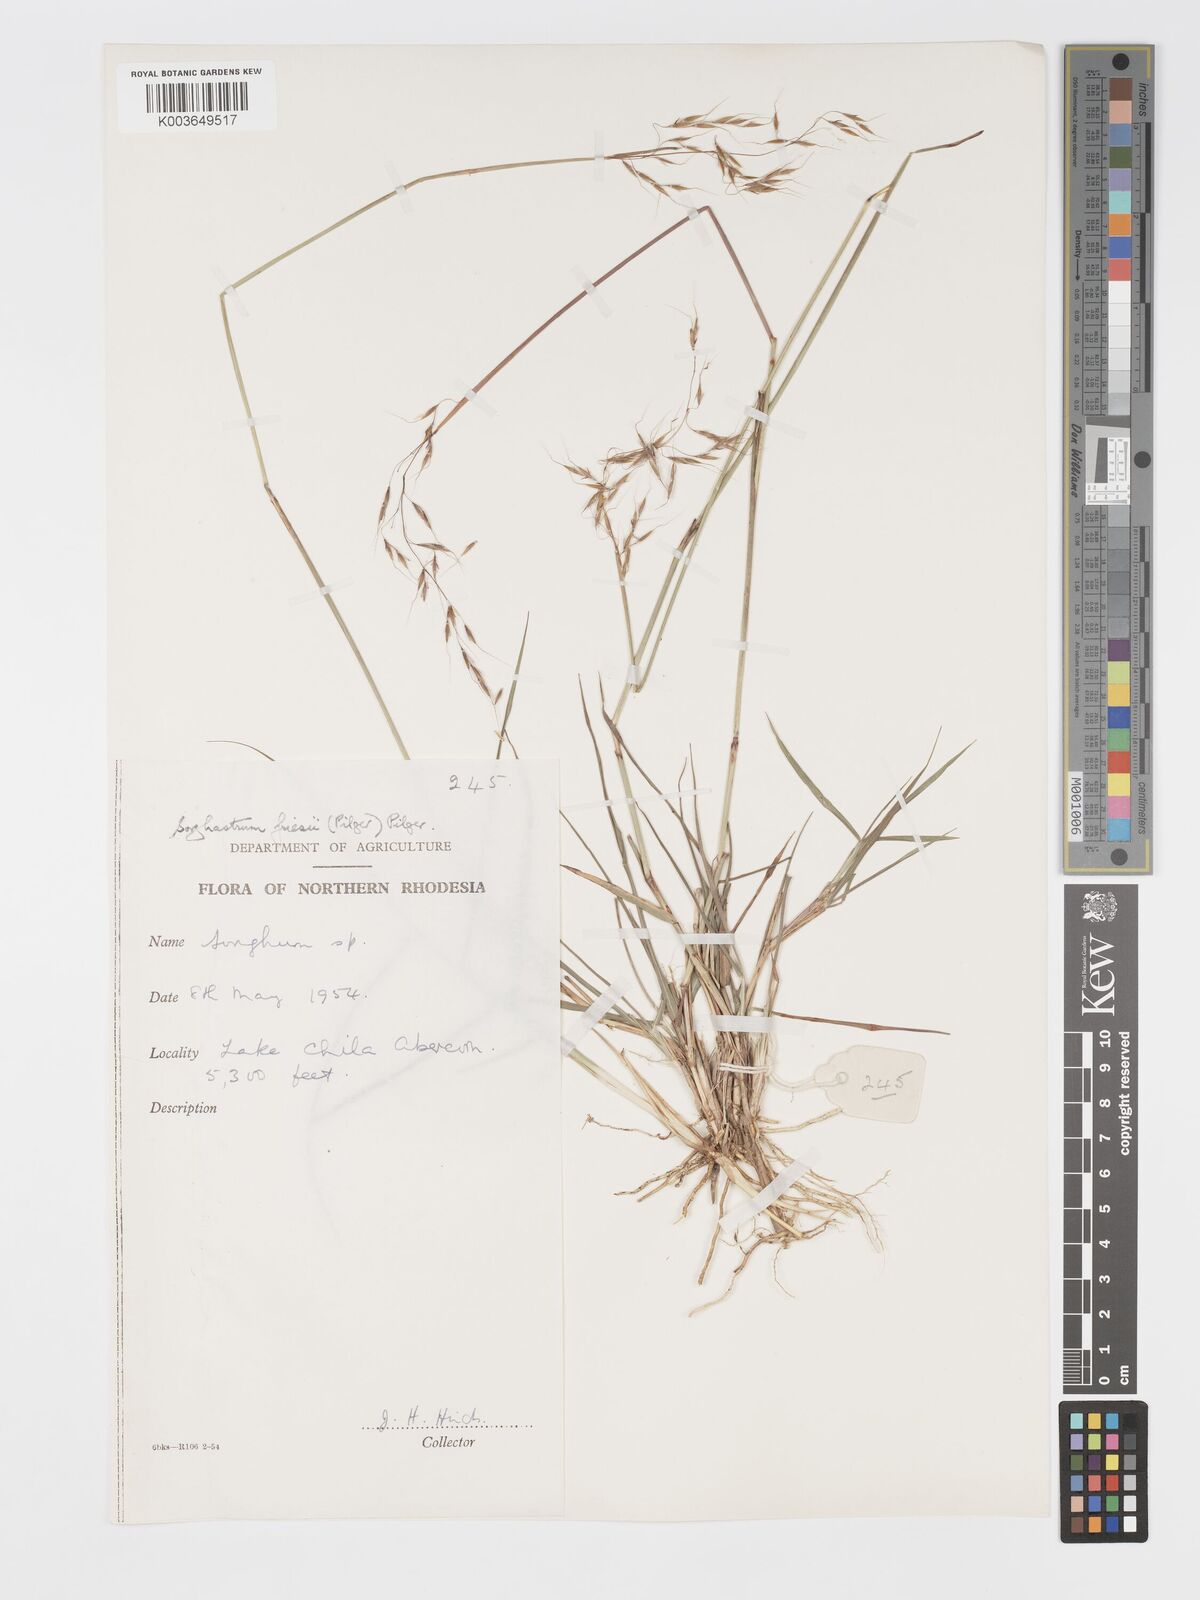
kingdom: Plantae
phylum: Tracheophyta
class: Liliopsida
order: Poales
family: Poaceae
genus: Sorghastrum
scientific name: Sorghastrum nudipes
